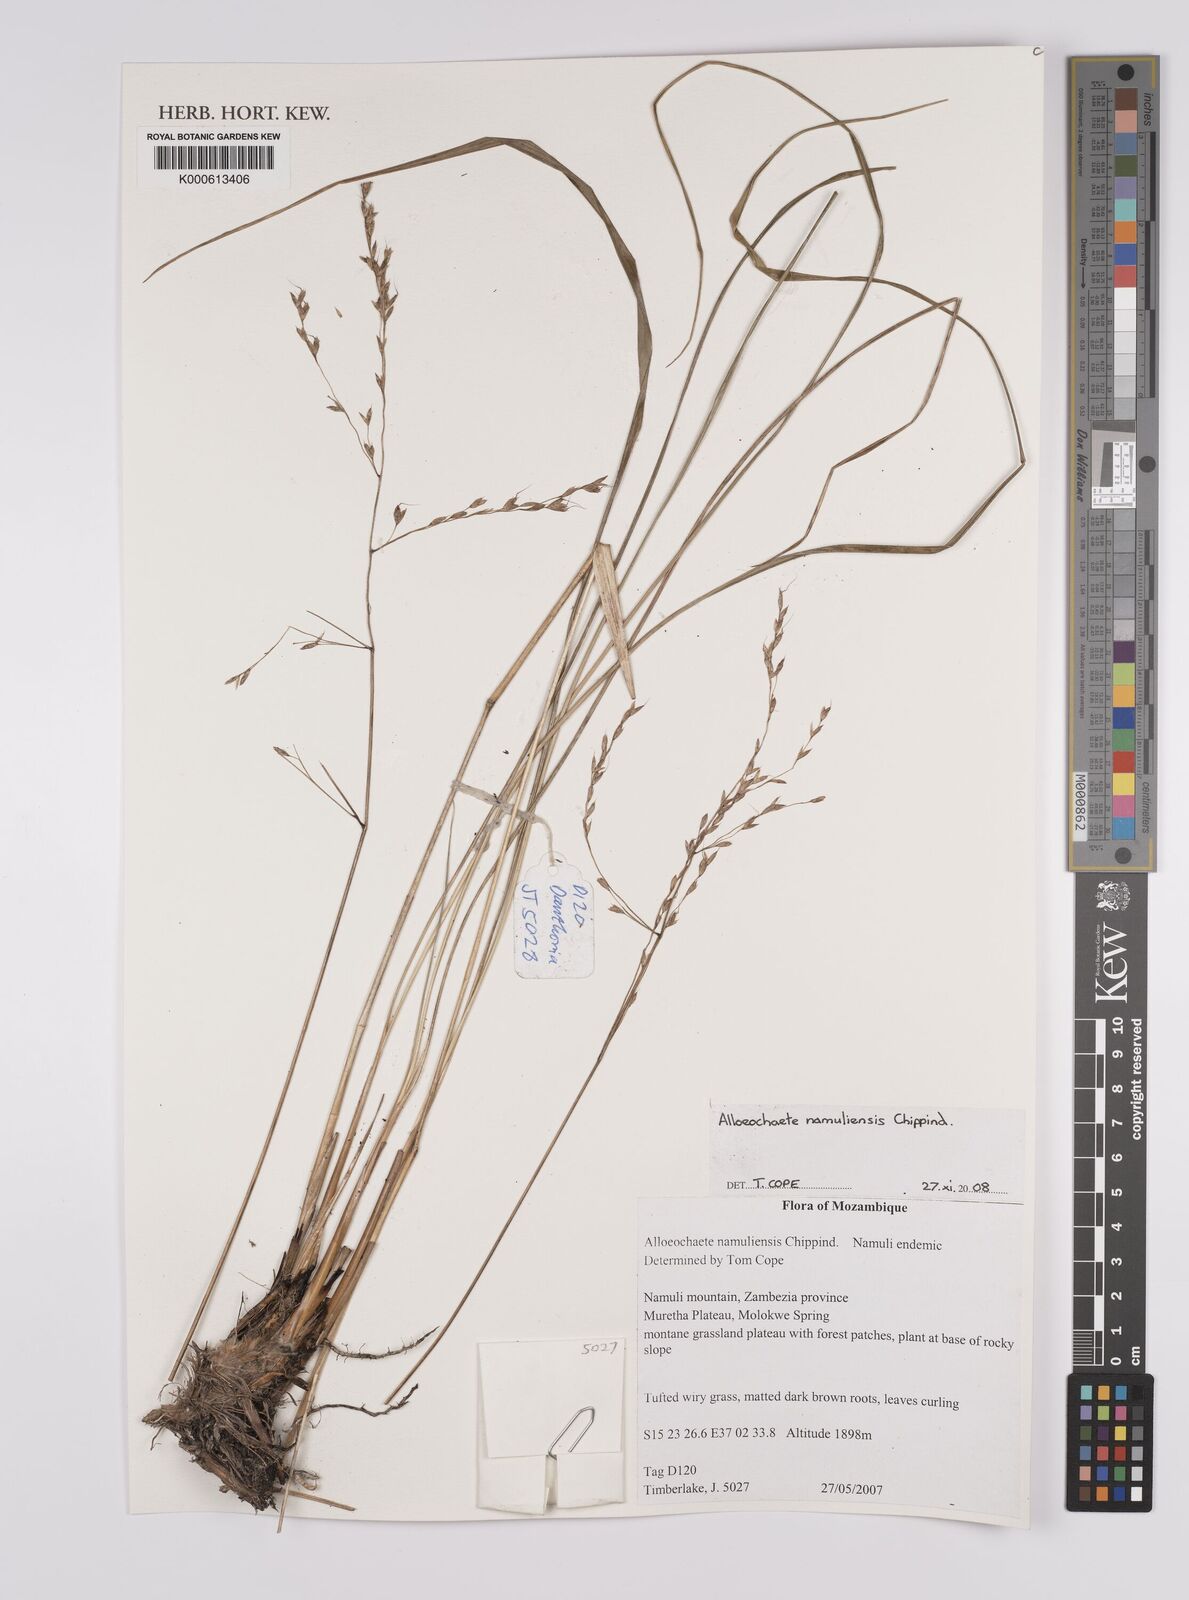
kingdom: Plantae
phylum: Tracheophyta
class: Liliopsida
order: Poales
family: Poaceae
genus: Alloeochaete
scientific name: Alloeochaete namuliensis
